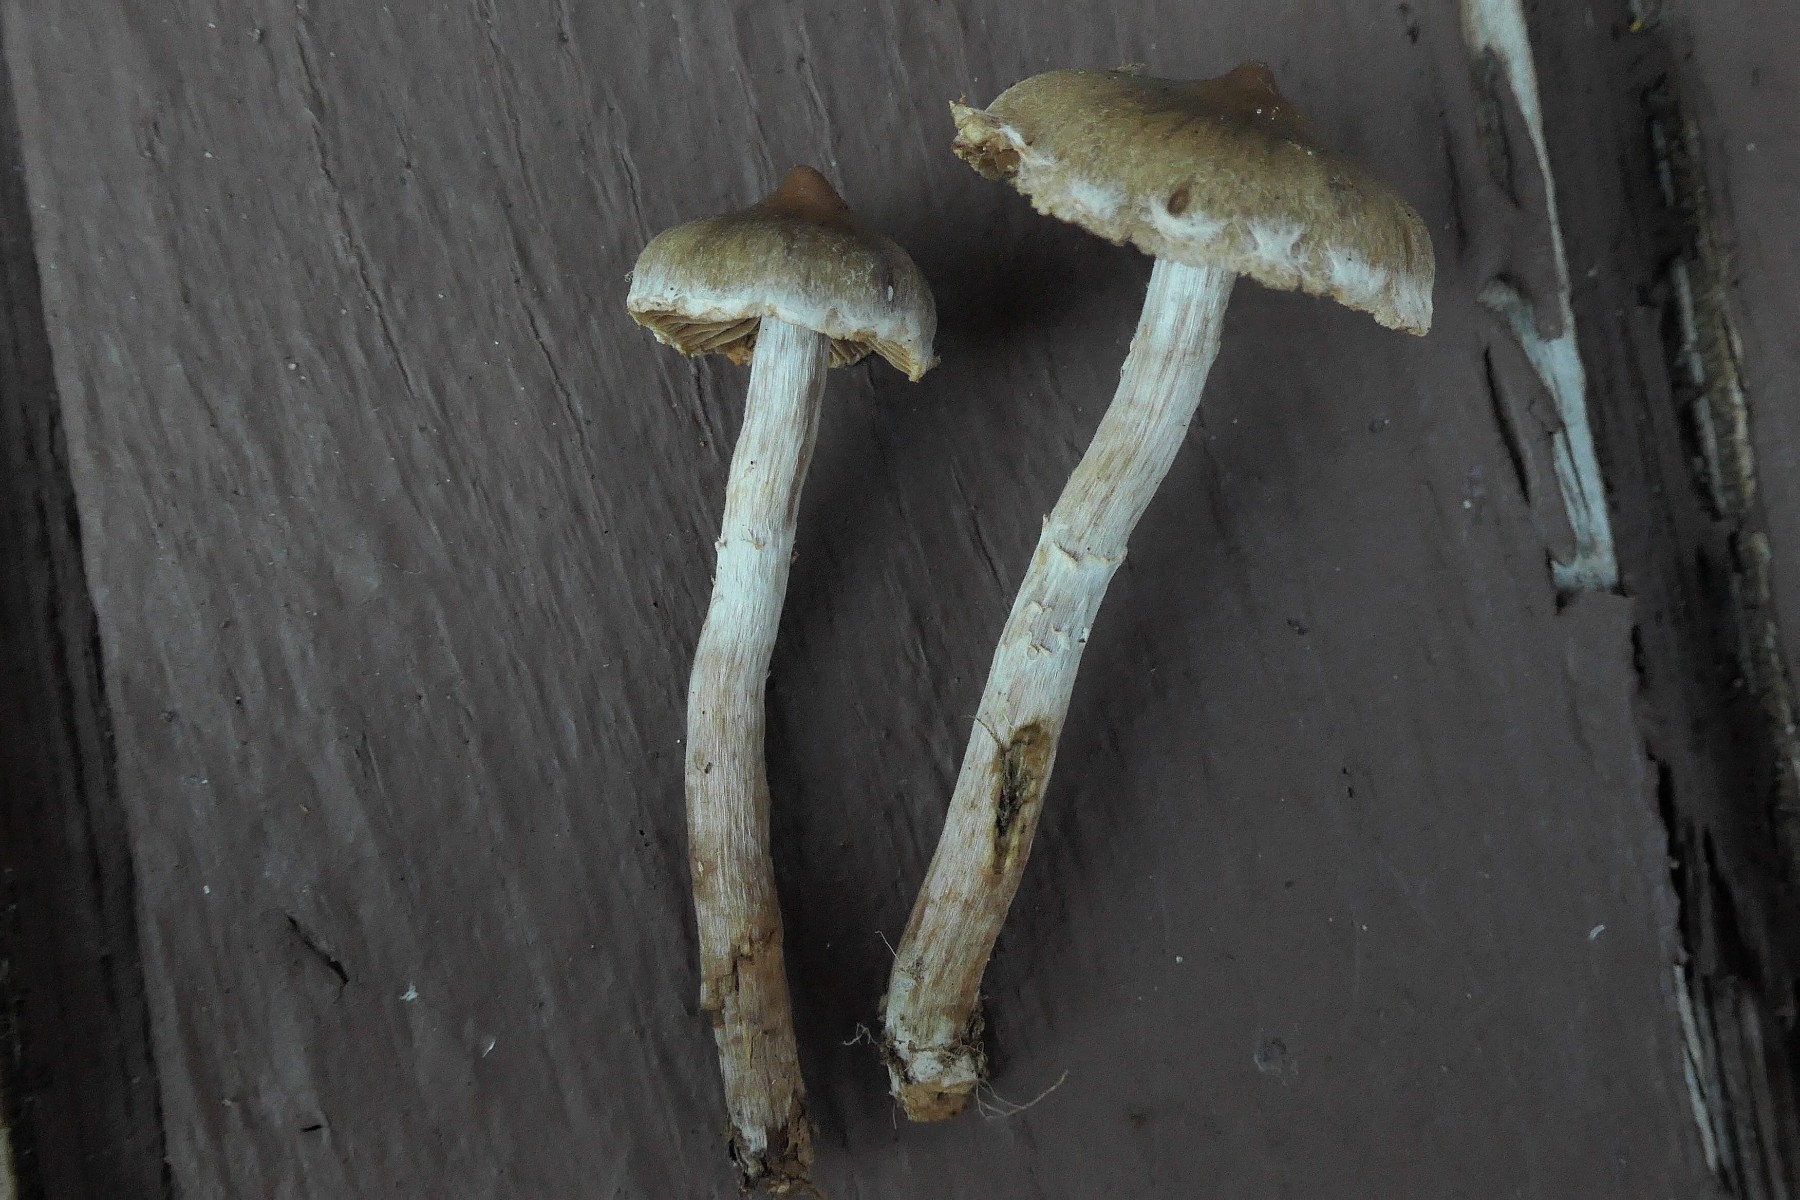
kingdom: Fungi
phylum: Basidiomycota
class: Agaricomycetes
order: Agaricales
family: Cortinariaceae
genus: Cortinarius
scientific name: Cortinarius lindstroemii
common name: Håkons slørhat
